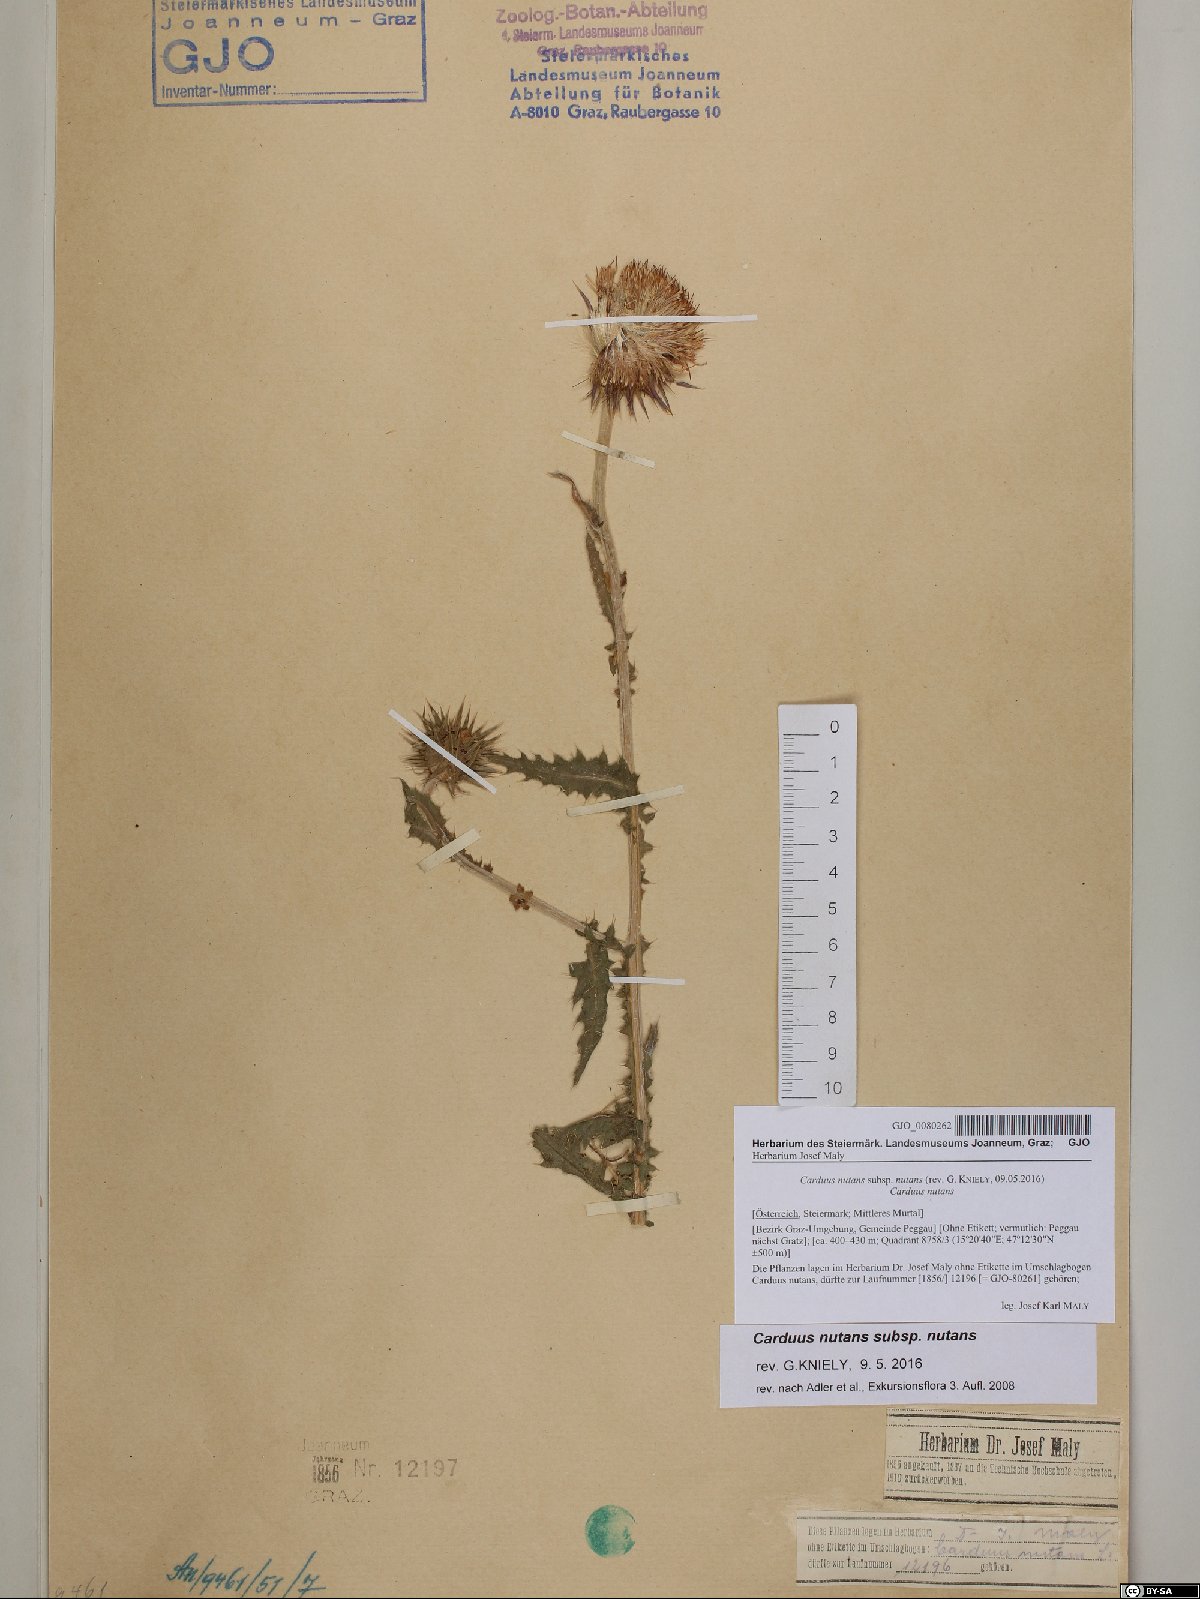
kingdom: Plantae
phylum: Tracheophyta
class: Magnoliopsida
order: Asterales
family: Asteraceae
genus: Carduus
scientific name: Carduus nutans
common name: Musk thistle
